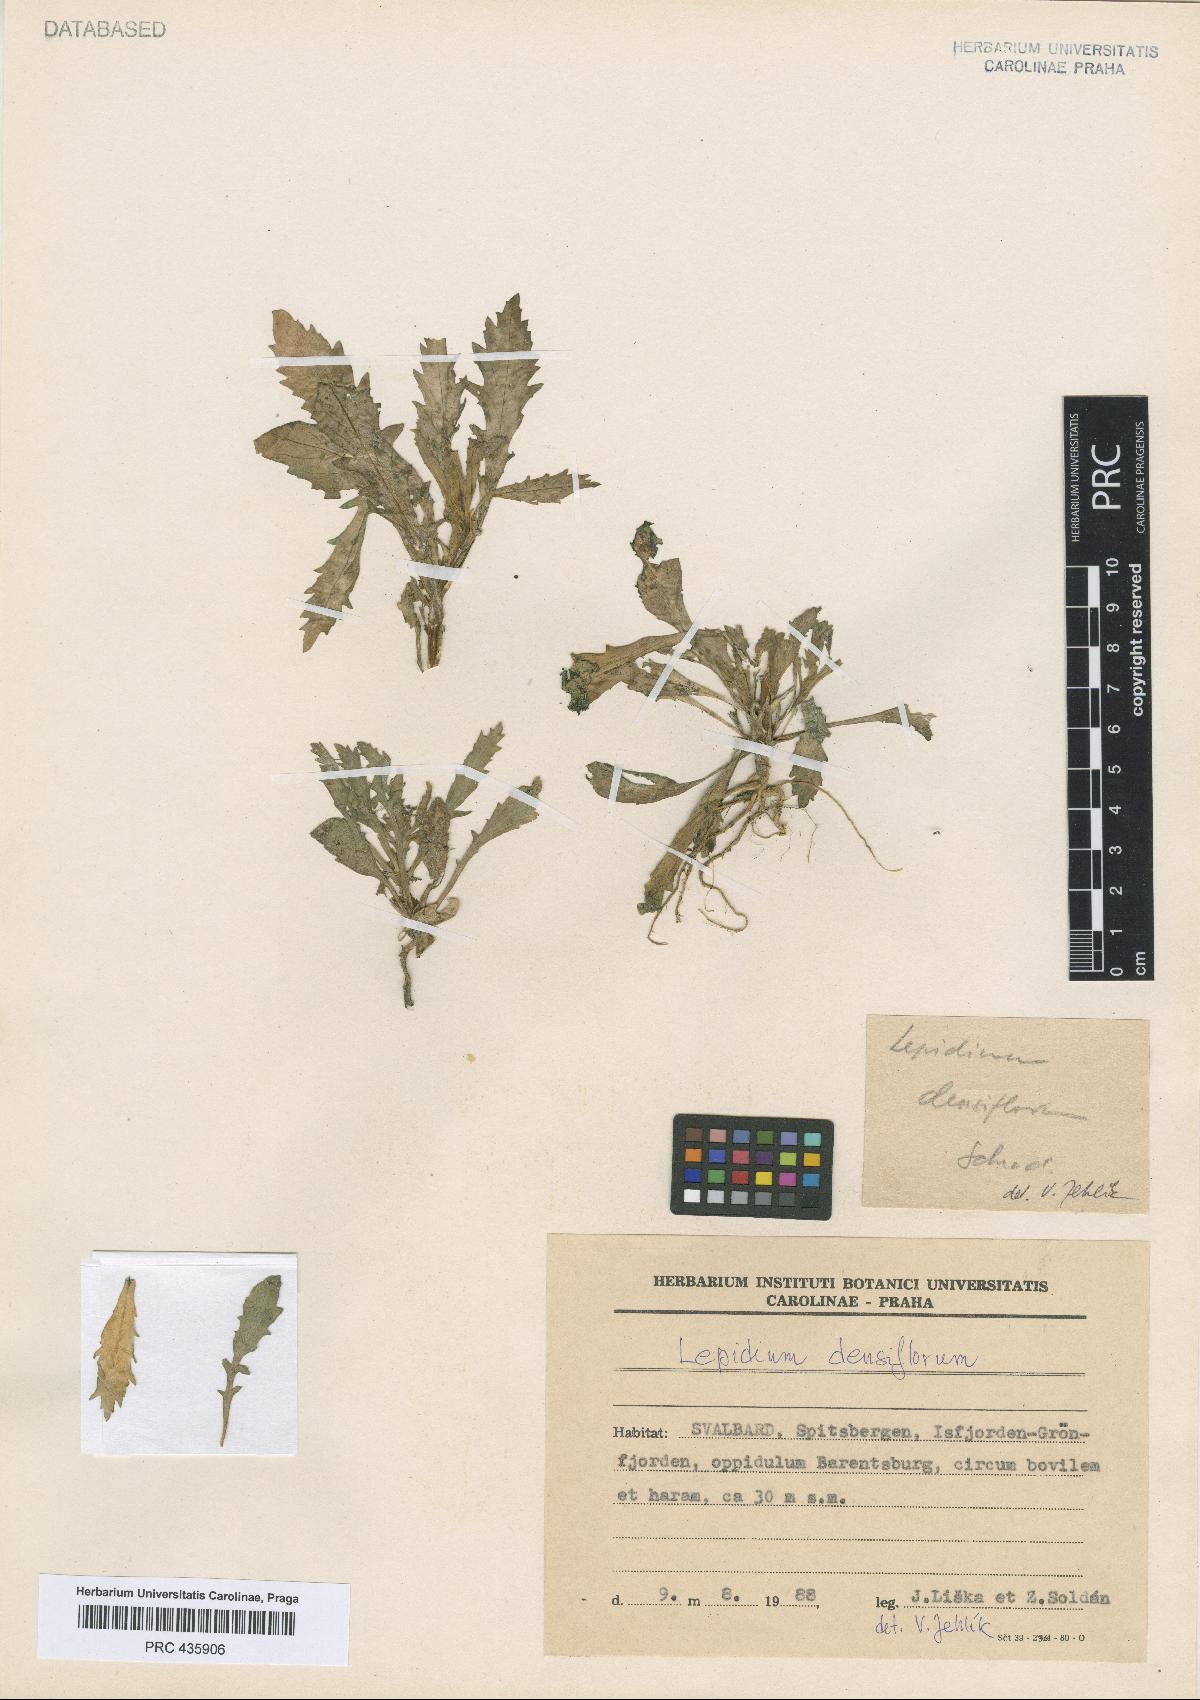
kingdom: Plantae
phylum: Tracheophyta
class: Magnoliopsida
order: Brassicales
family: Brassicaceae
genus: Lepidium
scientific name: Lepidium densiflorum
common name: Miner's pepperwort
